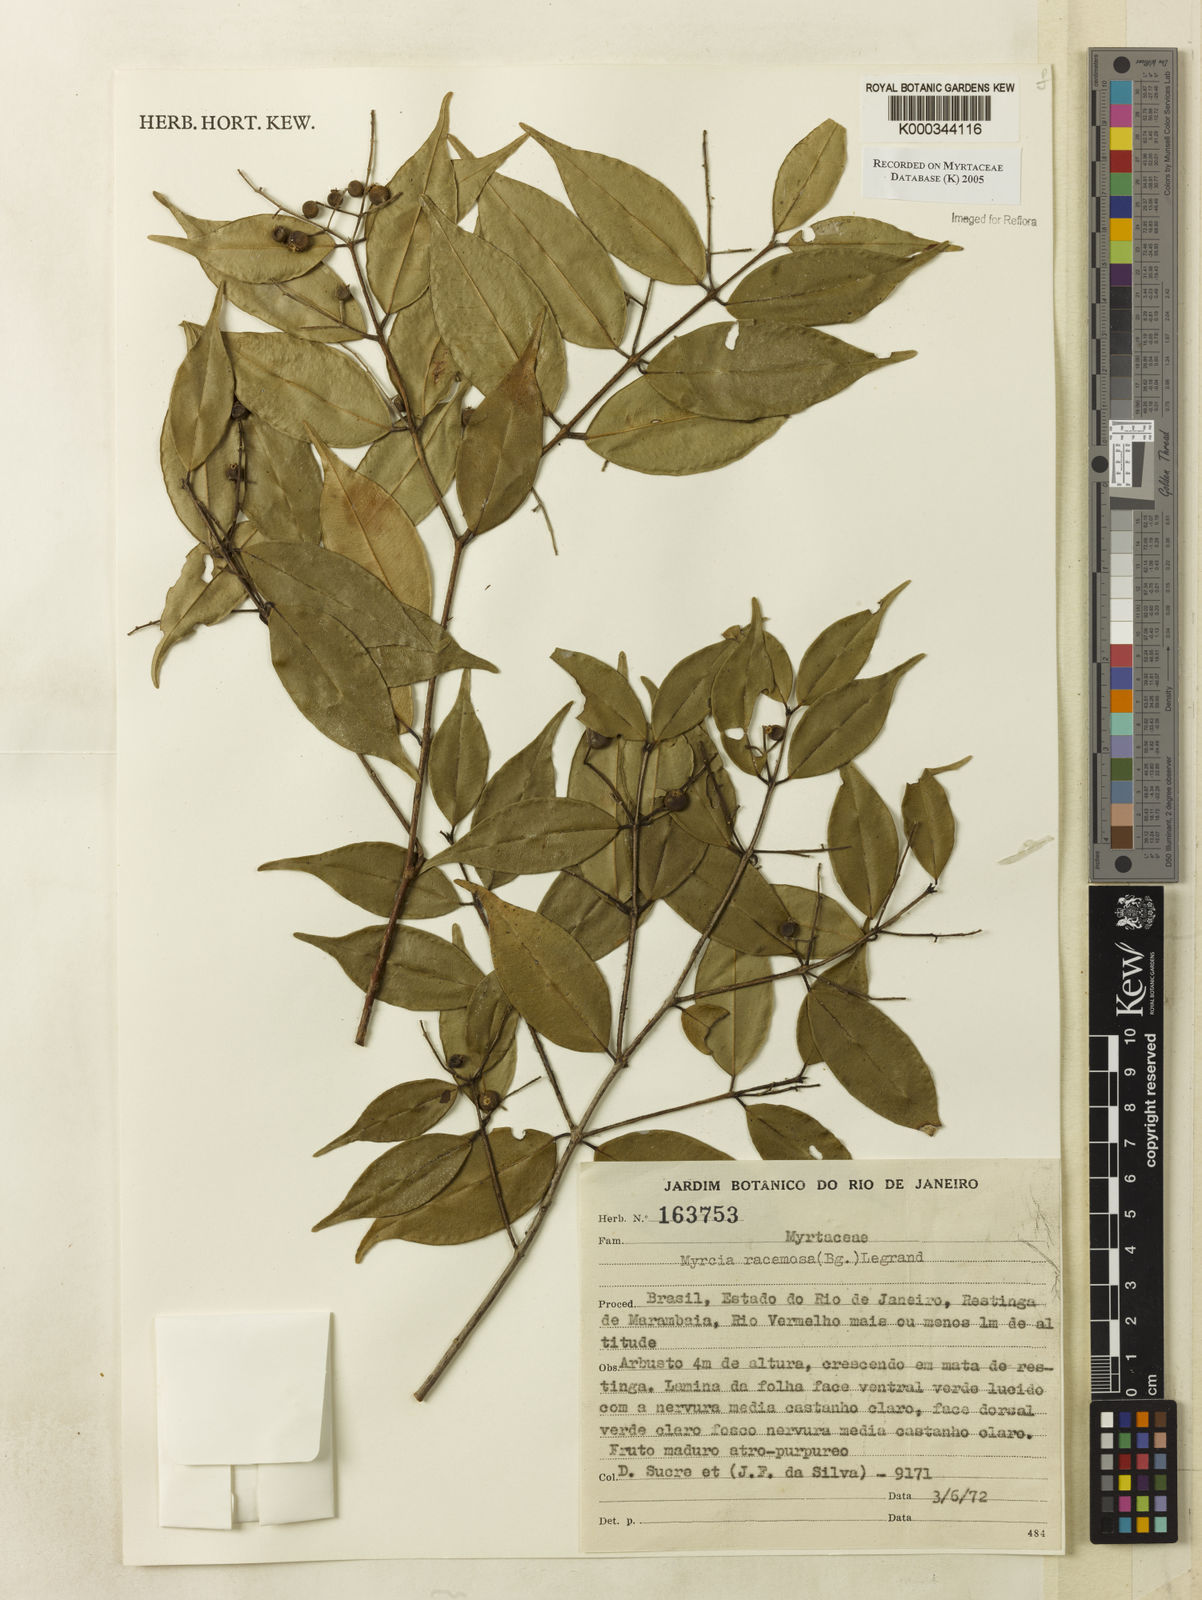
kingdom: Plantae
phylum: Tracheophyta
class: Magnoliopsida
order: Myrtales
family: Myrtaceae
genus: Myrcia
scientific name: Myrcia racemosa
